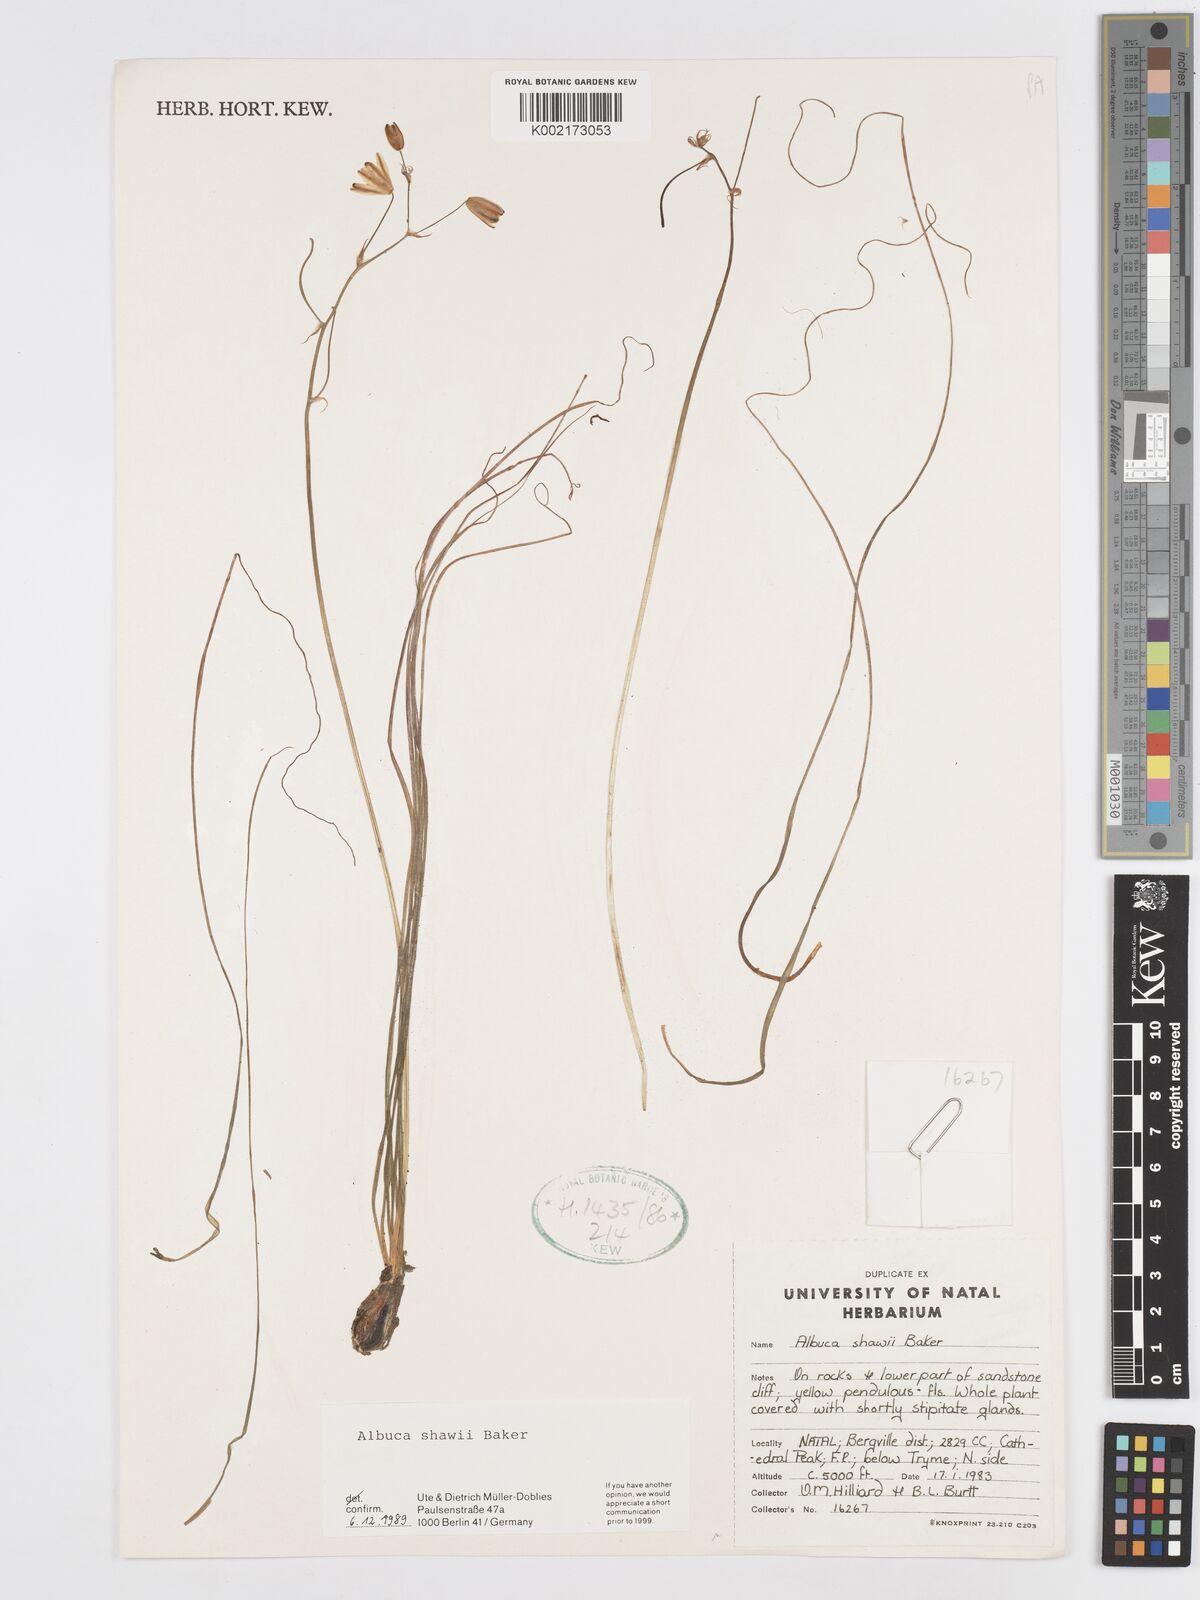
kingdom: Plantae
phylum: Tracheophyta
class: Liliopsida
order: Asparagales
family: Asparagaceae
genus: Albuca
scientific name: Albuca shawii
